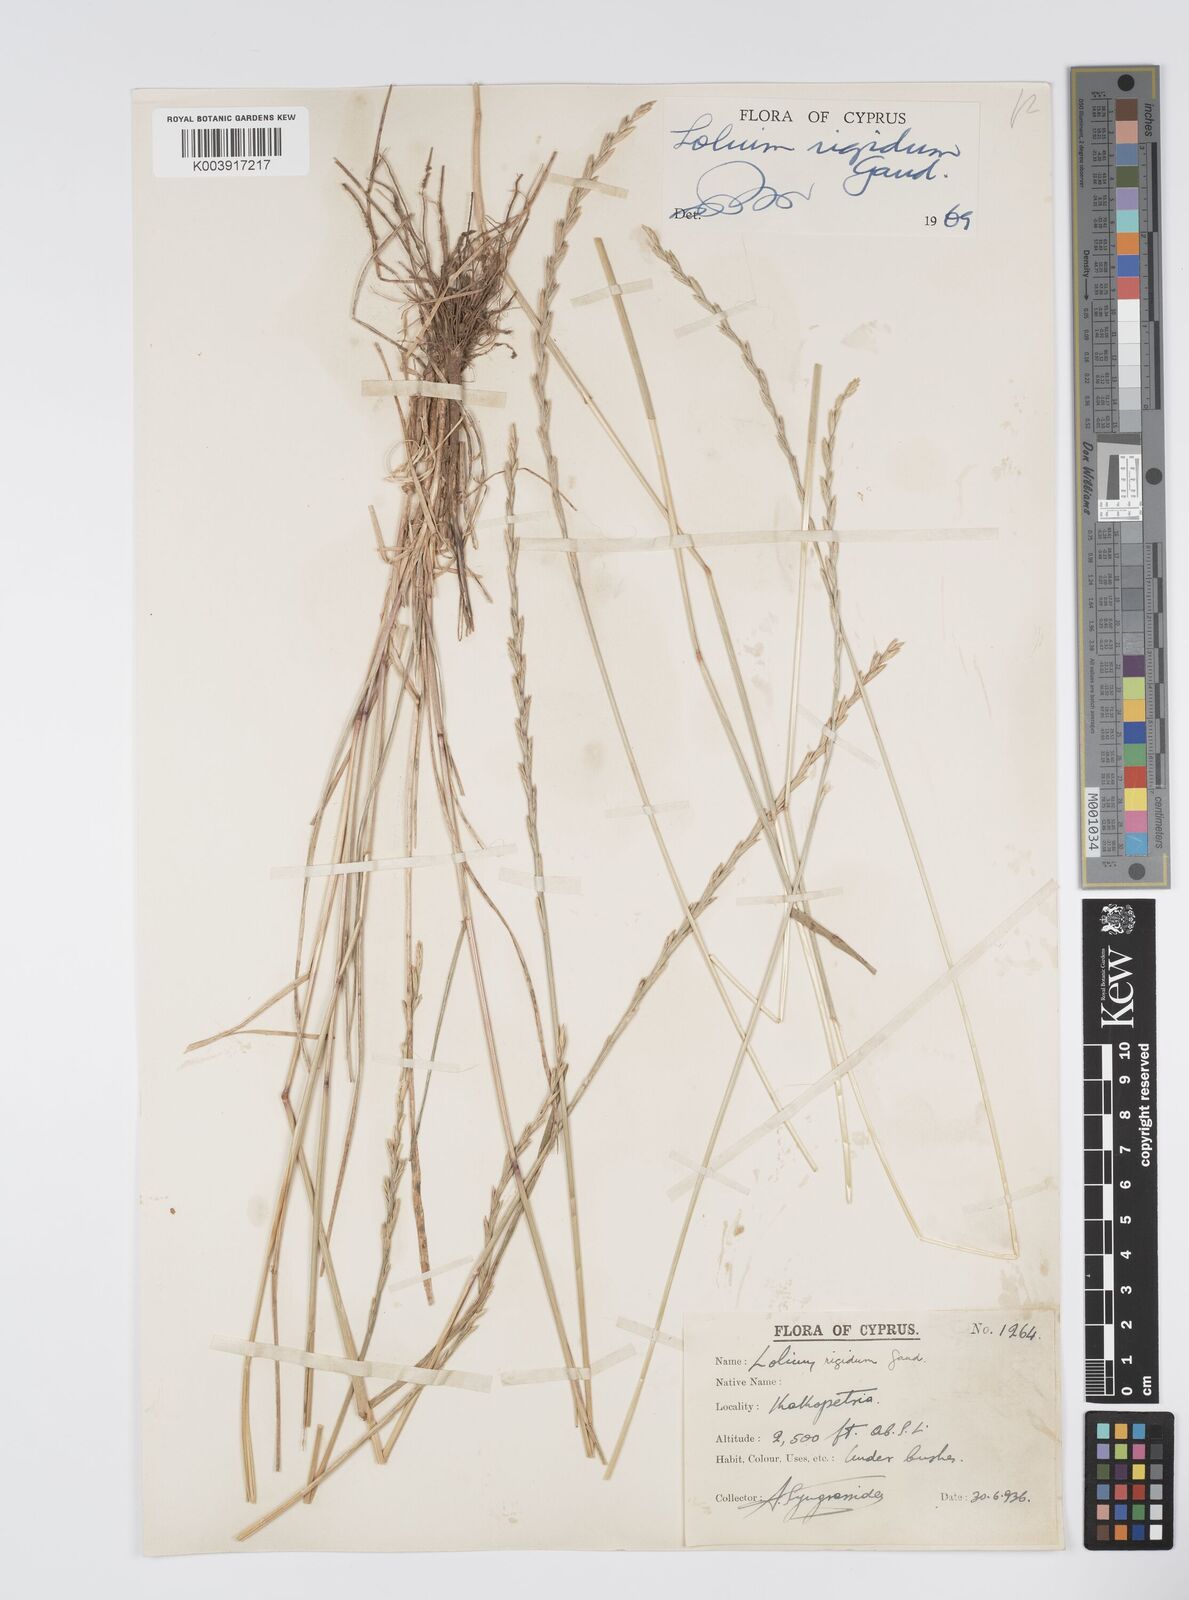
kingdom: Plantae
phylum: Tracheophyta
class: Liliopsida
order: Poales
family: Poaceae
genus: Lolium
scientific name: Lolium rigidum
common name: Wimmera ryegrass
